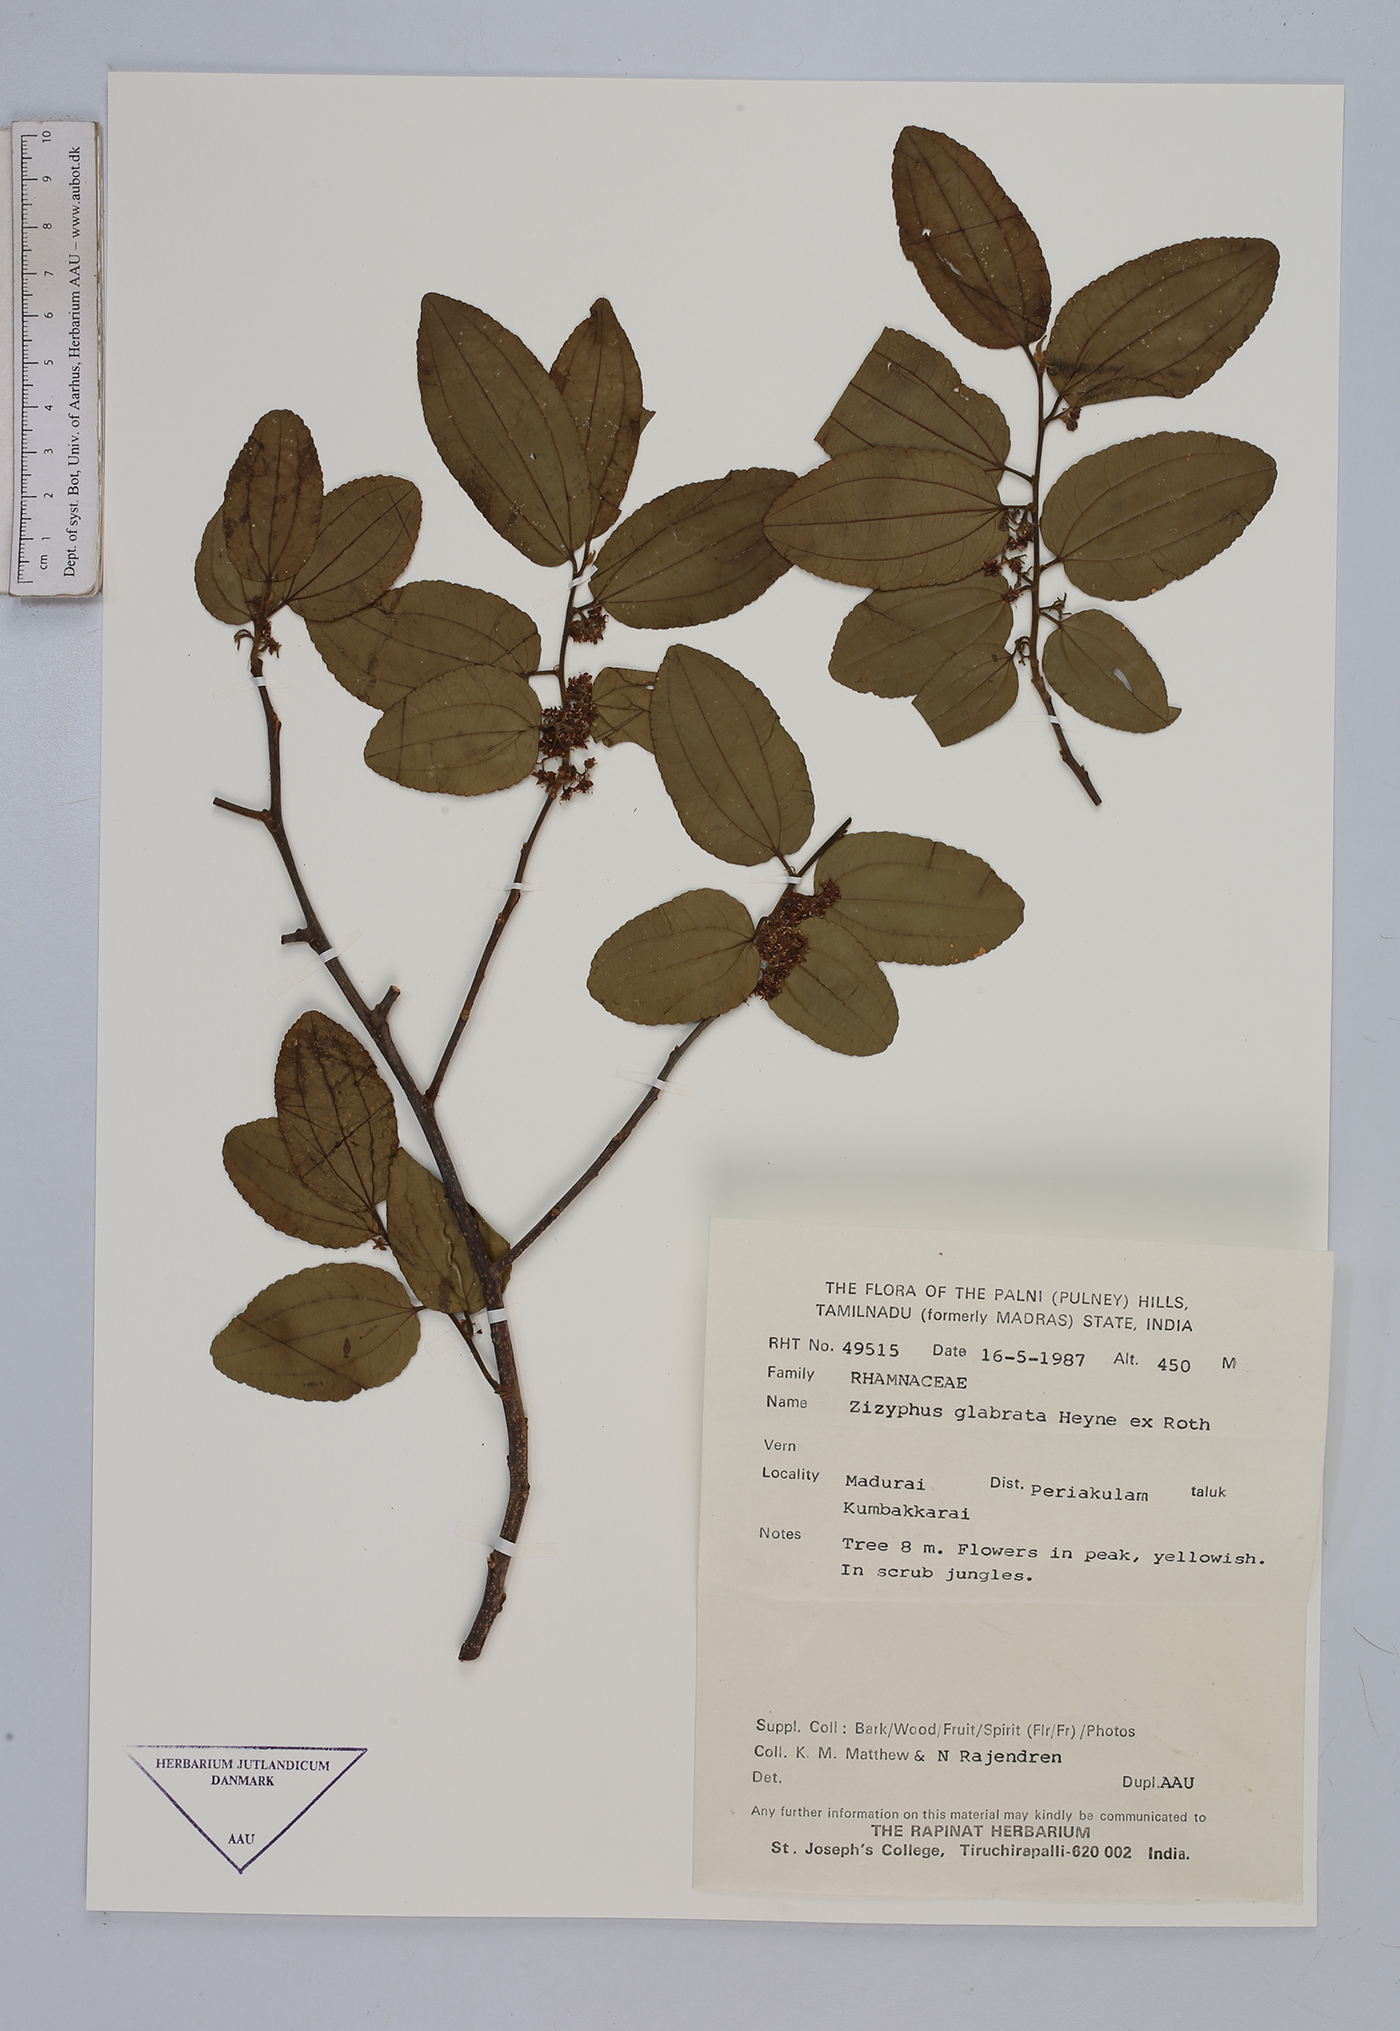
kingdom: Plantae
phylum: Tracheophyta
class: Magnoliopsida
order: Rosales
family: Rhamnaceae
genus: Ziziphus
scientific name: Ziziphus glabrata
